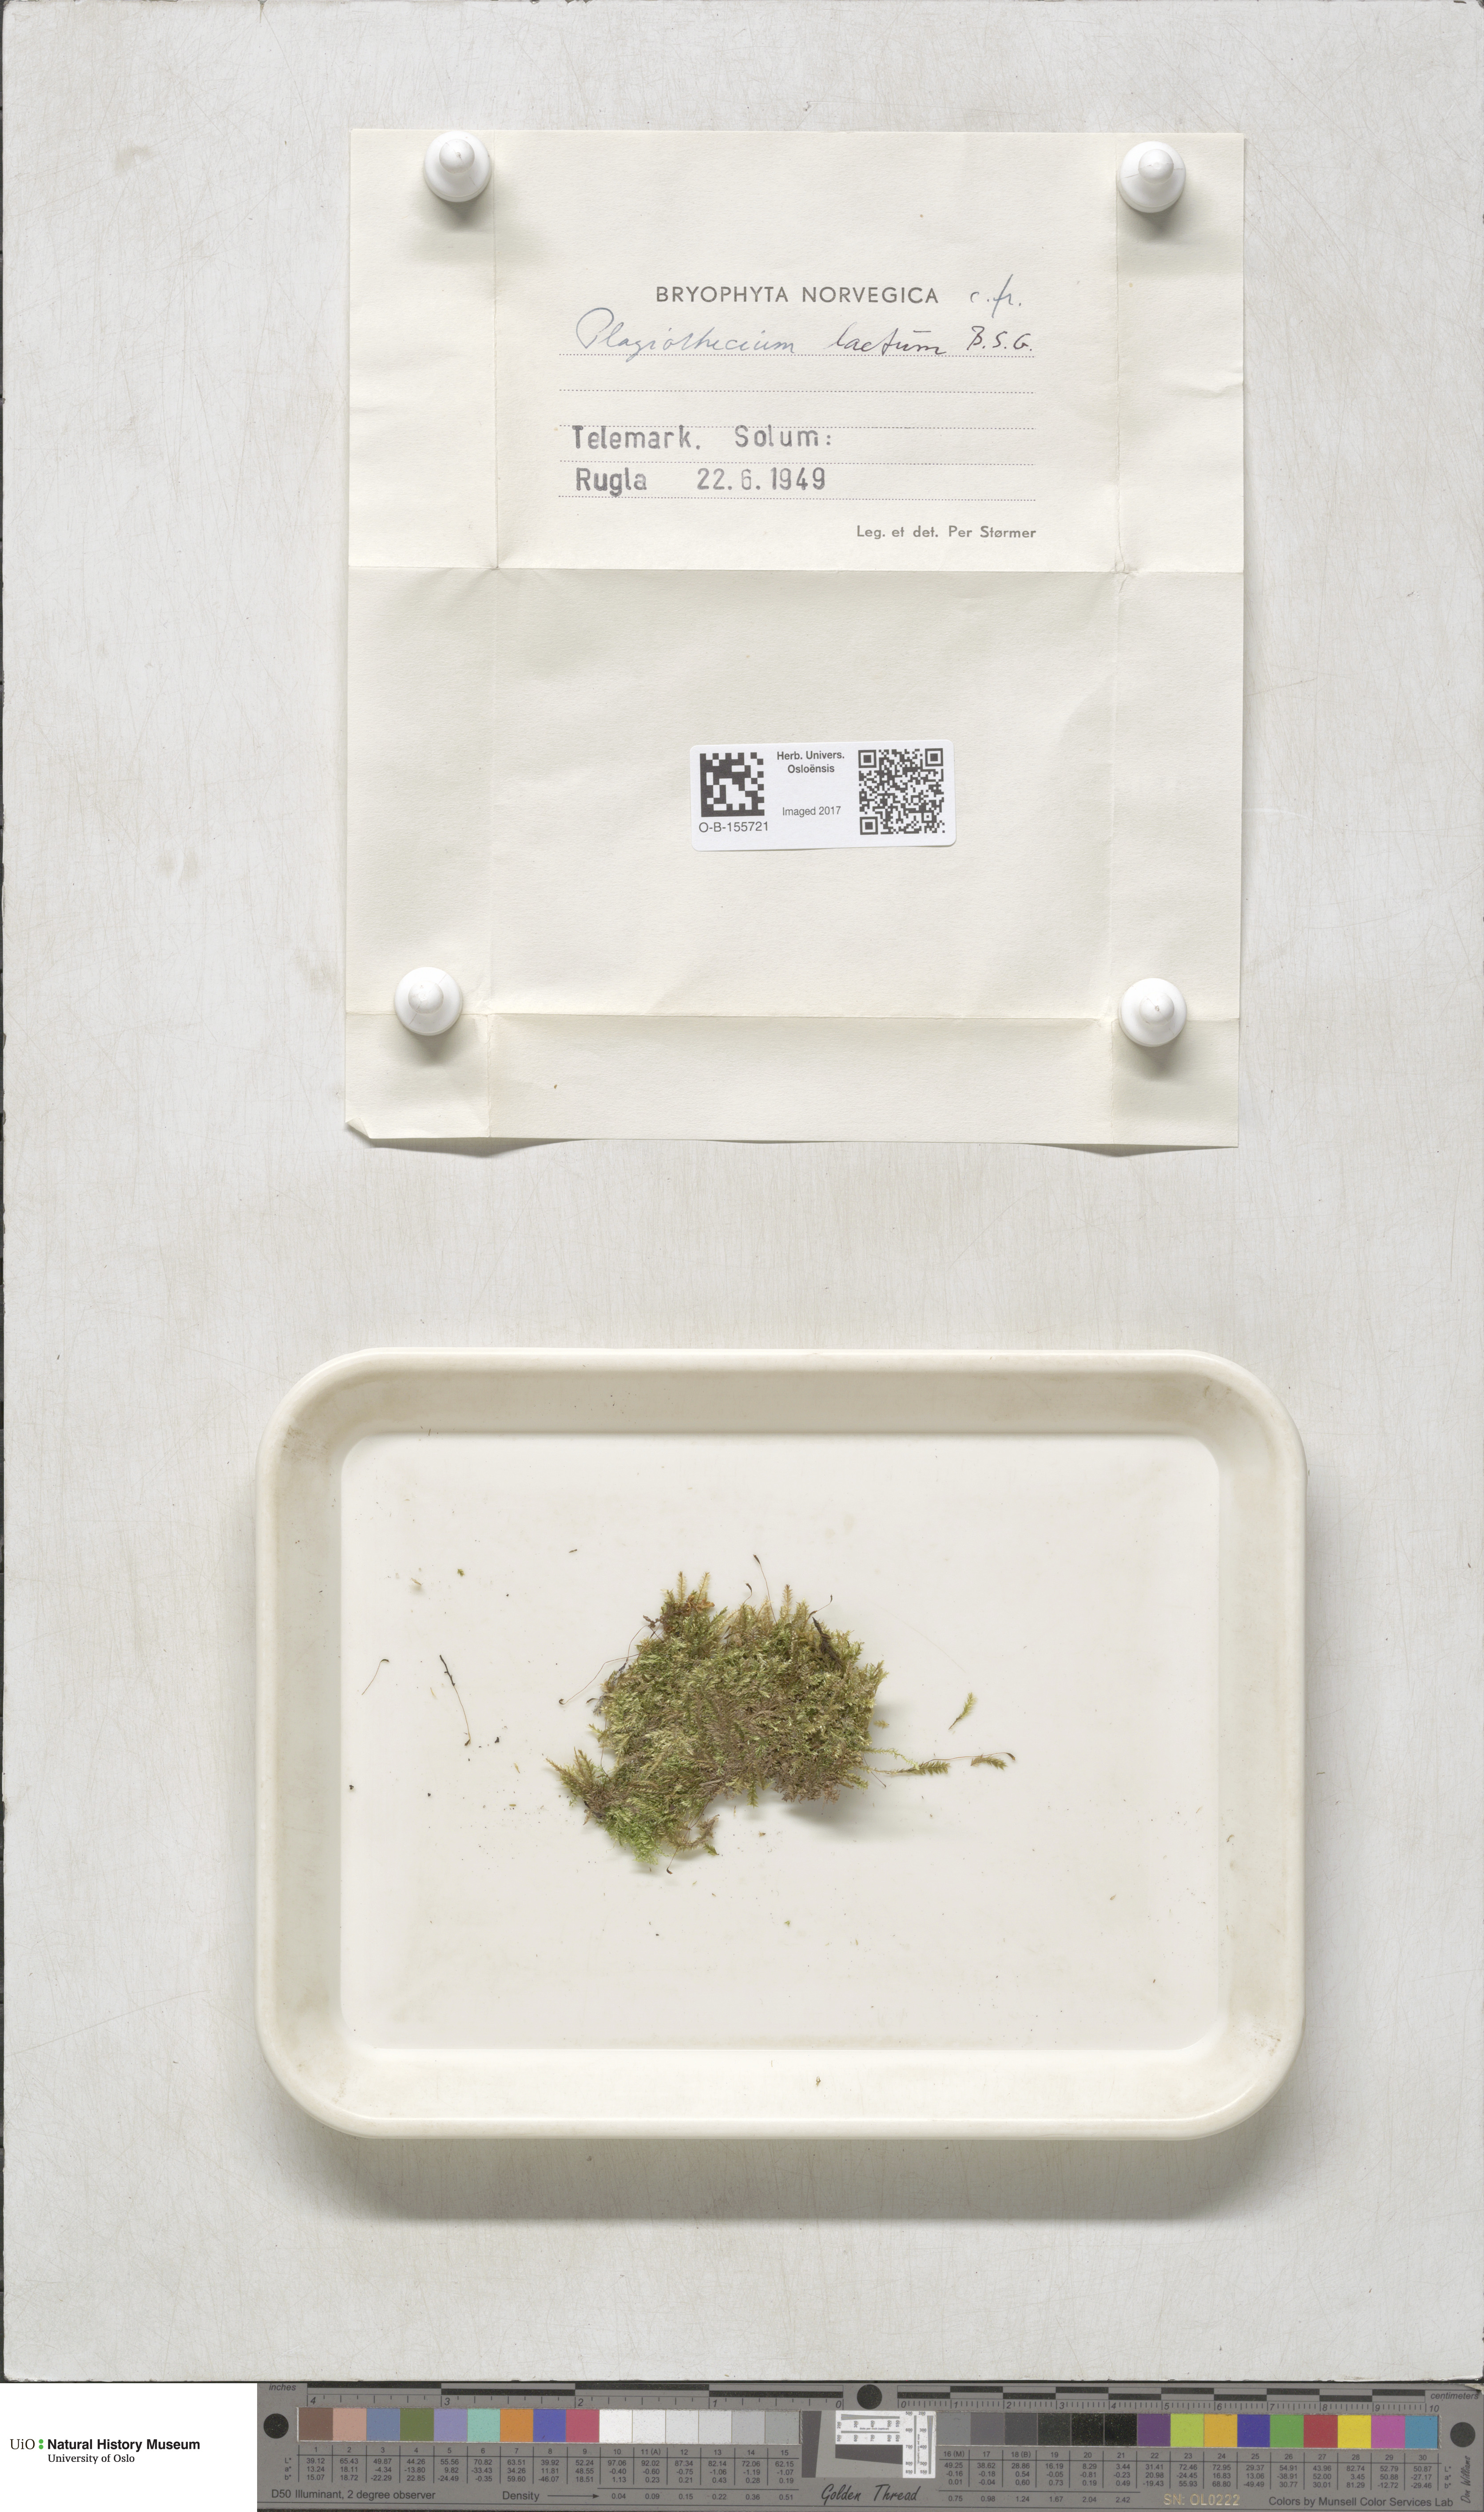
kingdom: Plantae
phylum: Bryophyta
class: Bryopsida
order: Hypnales
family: Plagiotheciaceae
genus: Plagiothecium
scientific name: Plagiothecium laetum
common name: Bright silk moss
